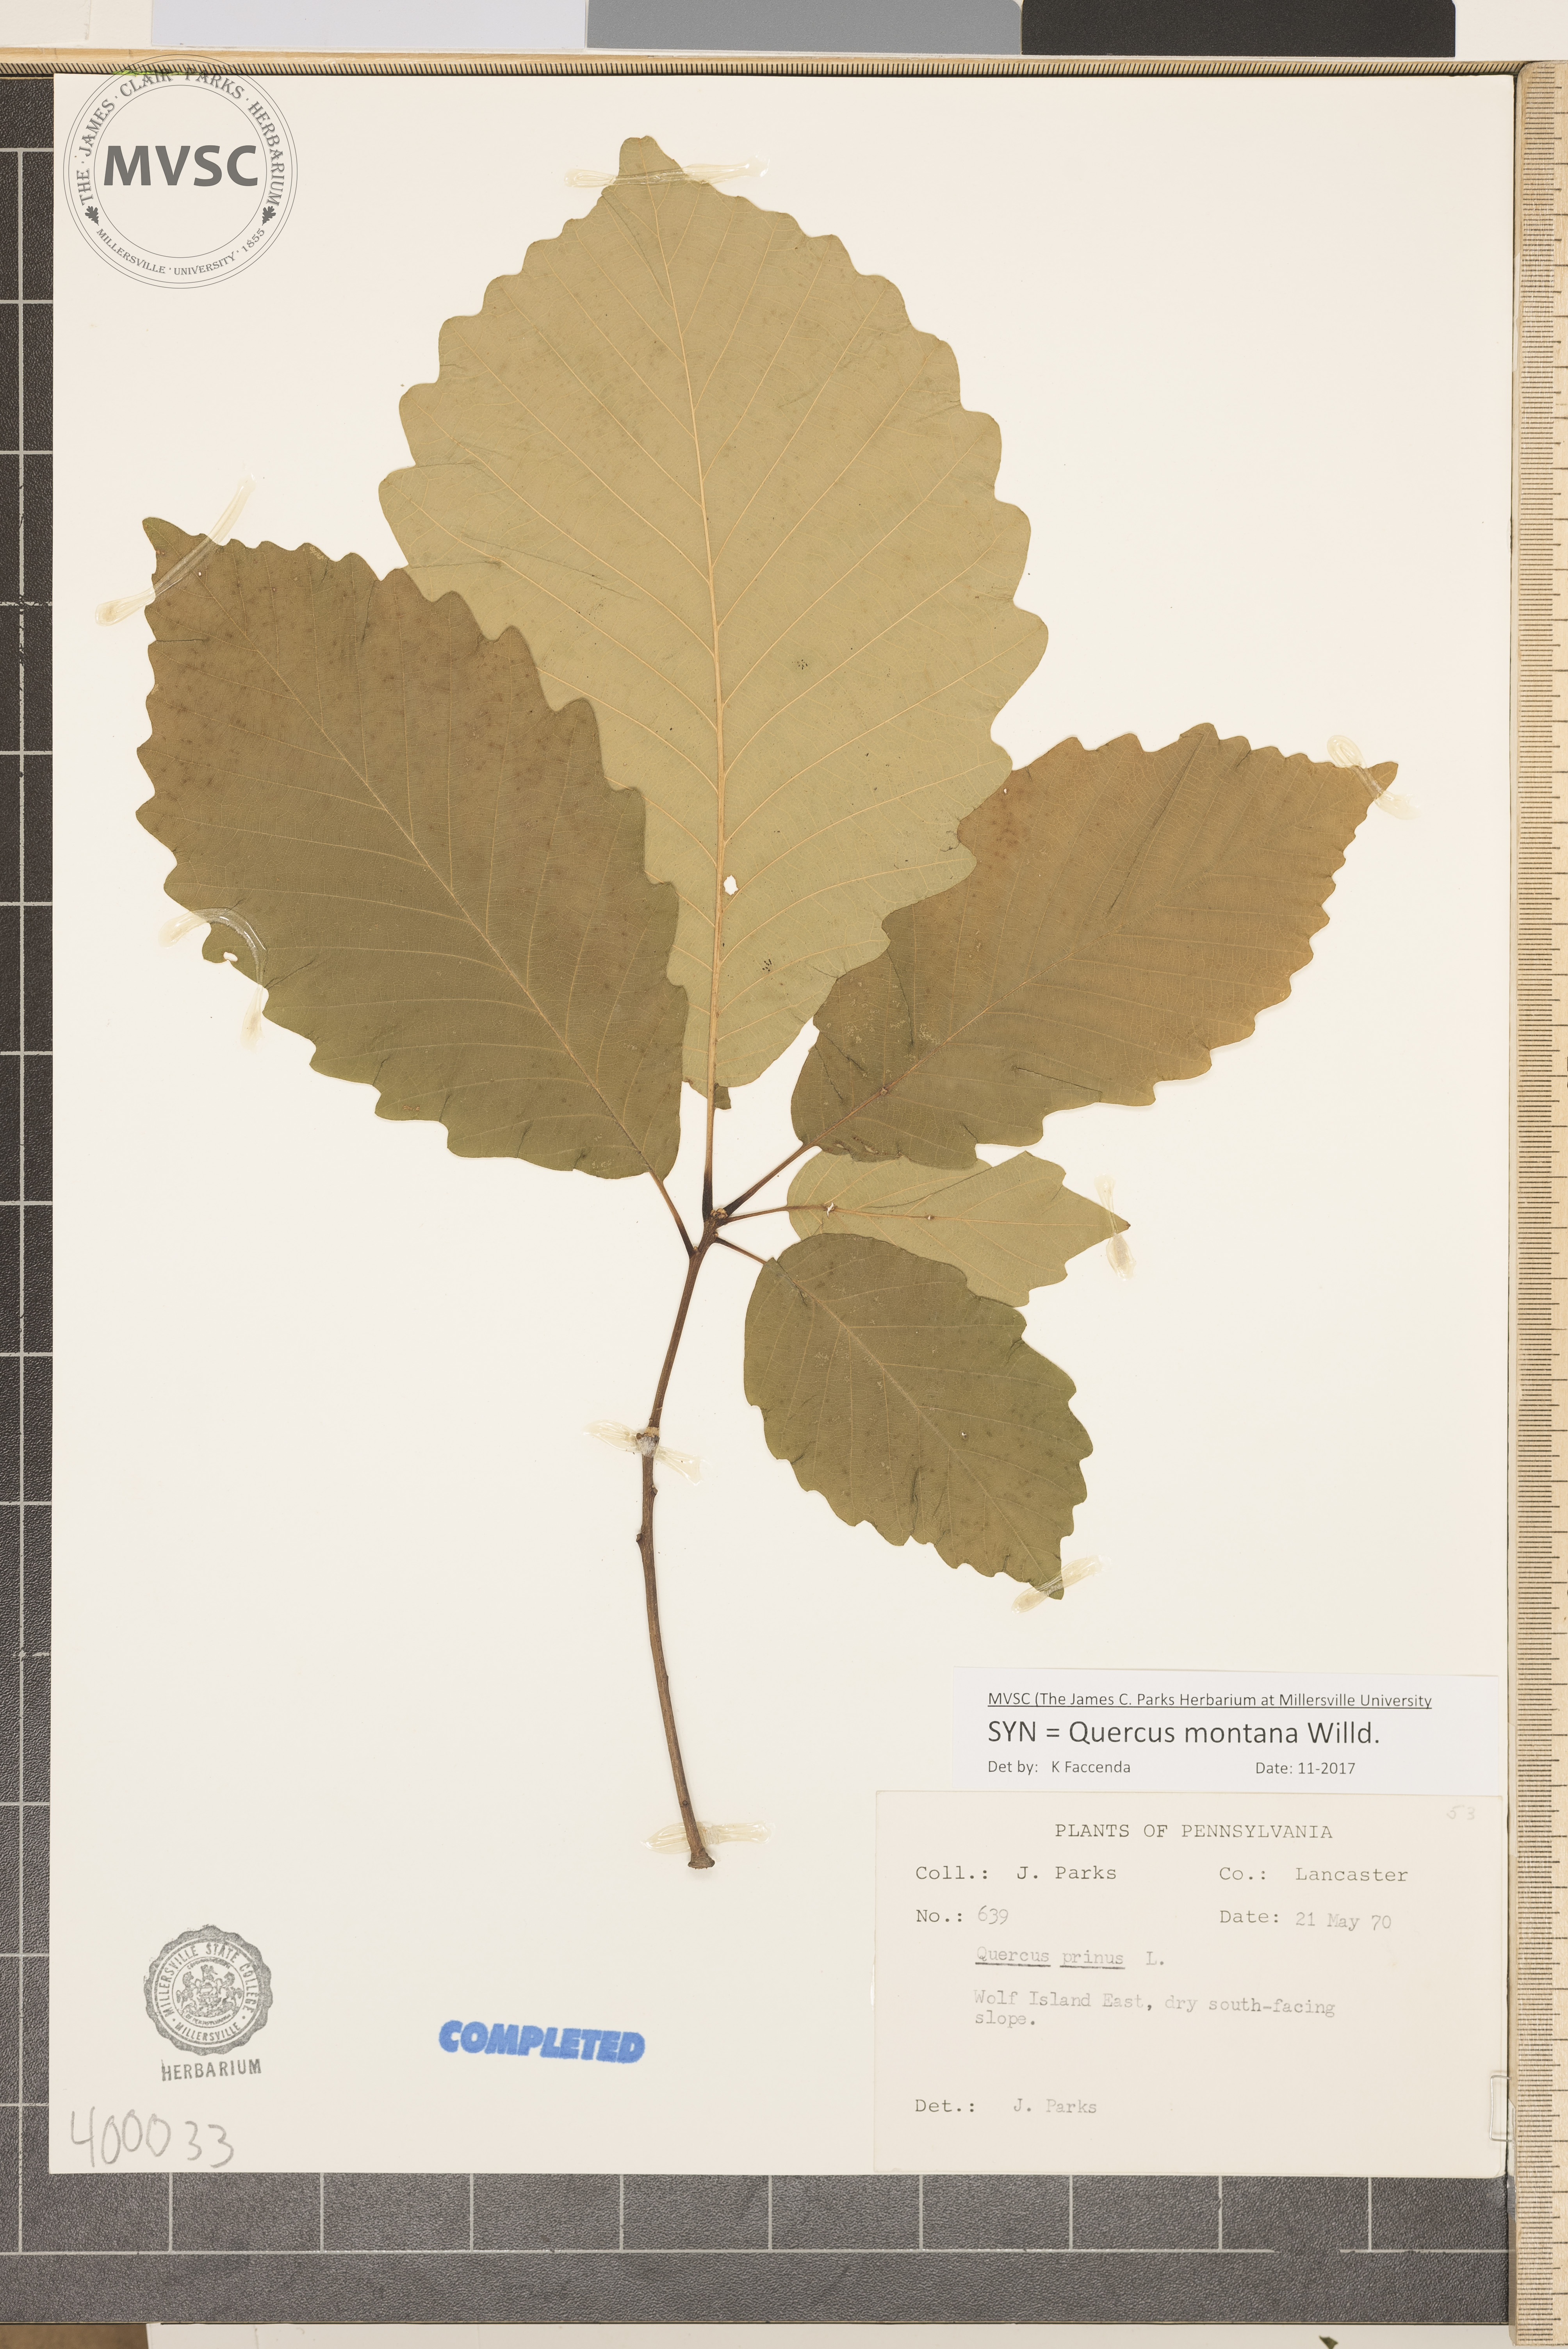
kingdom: Plantae
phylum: Tracheophyta
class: Magnoliopsida
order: Fagales
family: Fagaceae
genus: Quercus
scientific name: Quercus montana
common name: chestnut oak
